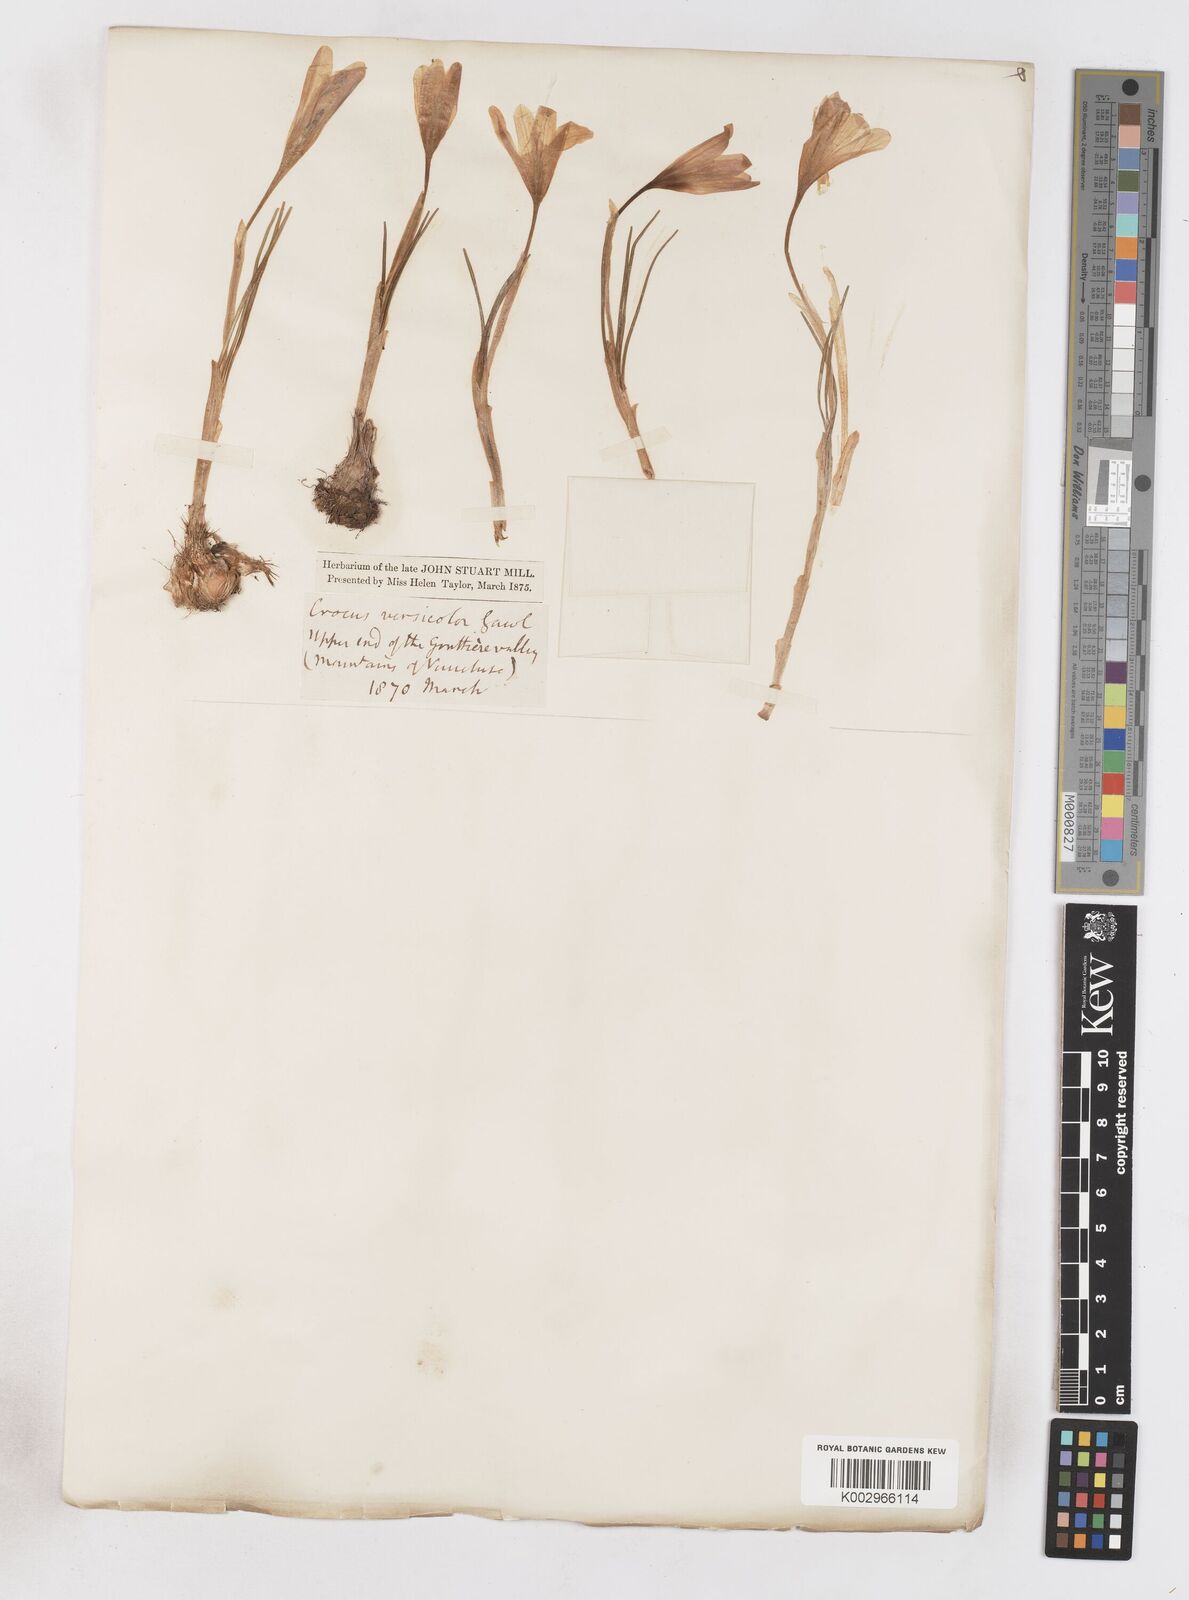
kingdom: Plantae
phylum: Tracheophyta
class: Liliopsida
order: Asparagales
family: Iridaceae
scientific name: Iridaceae
